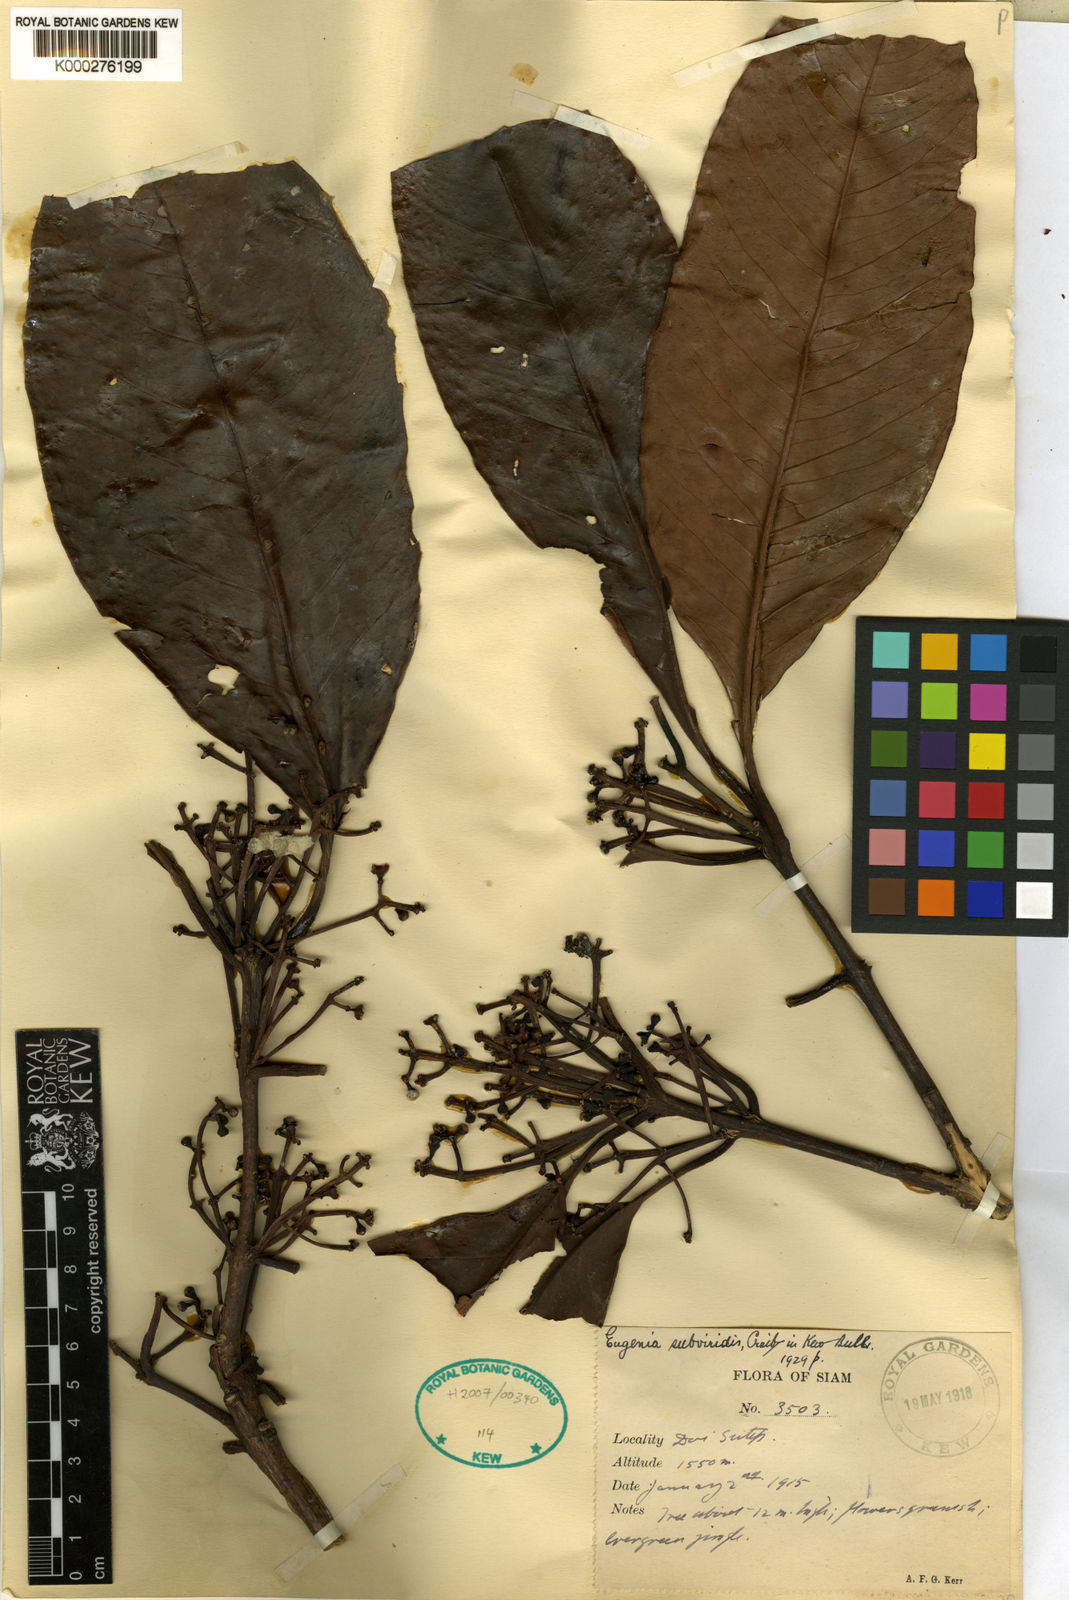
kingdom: Plantae
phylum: Tracheophyta
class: Magnoliopsida
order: Myrtales
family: Myrtaceae
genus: Syzygium
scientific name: Syzygium
